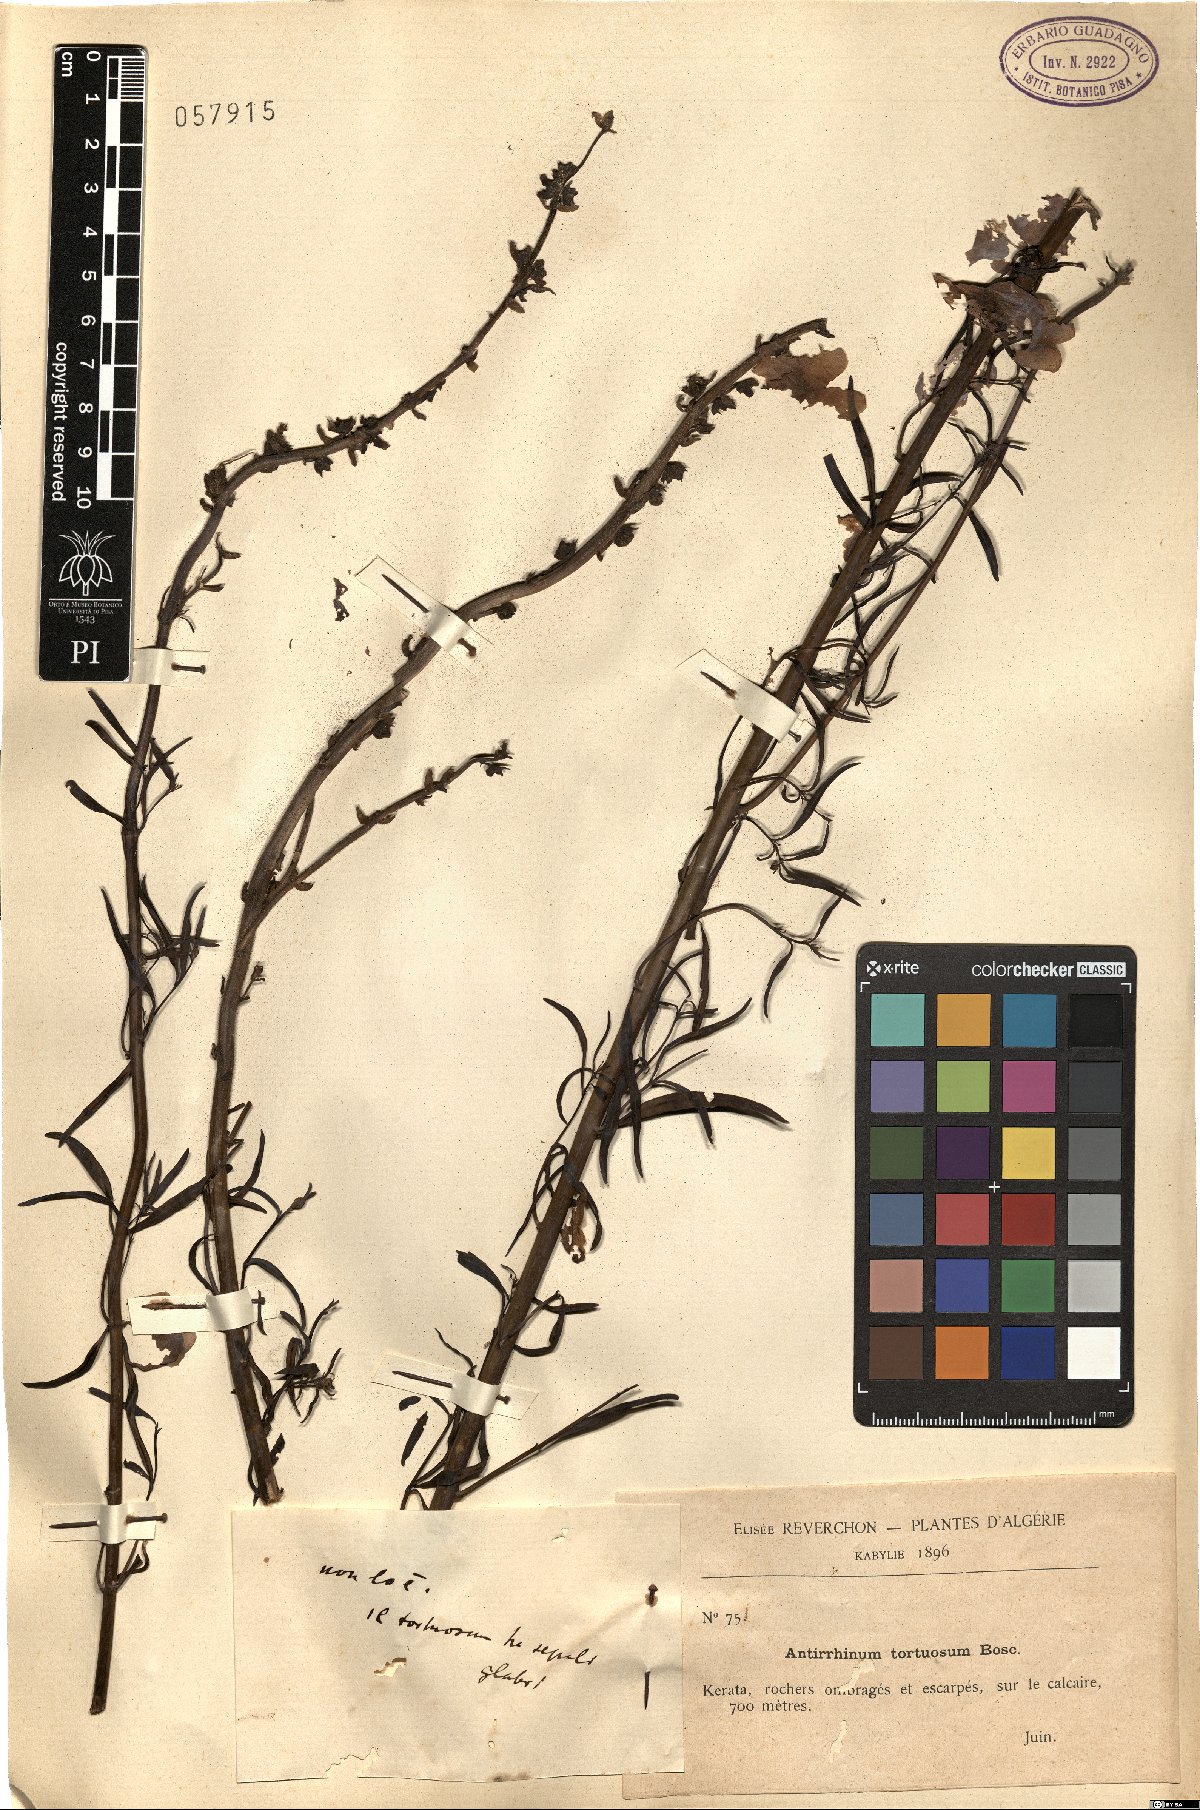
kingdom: Plantae
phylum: Tracheophyta
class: Magnoliopsida
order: Lamiales
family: Plantaginaceae
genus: Antirrhinum
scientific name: Antirrhinum tortuosum
